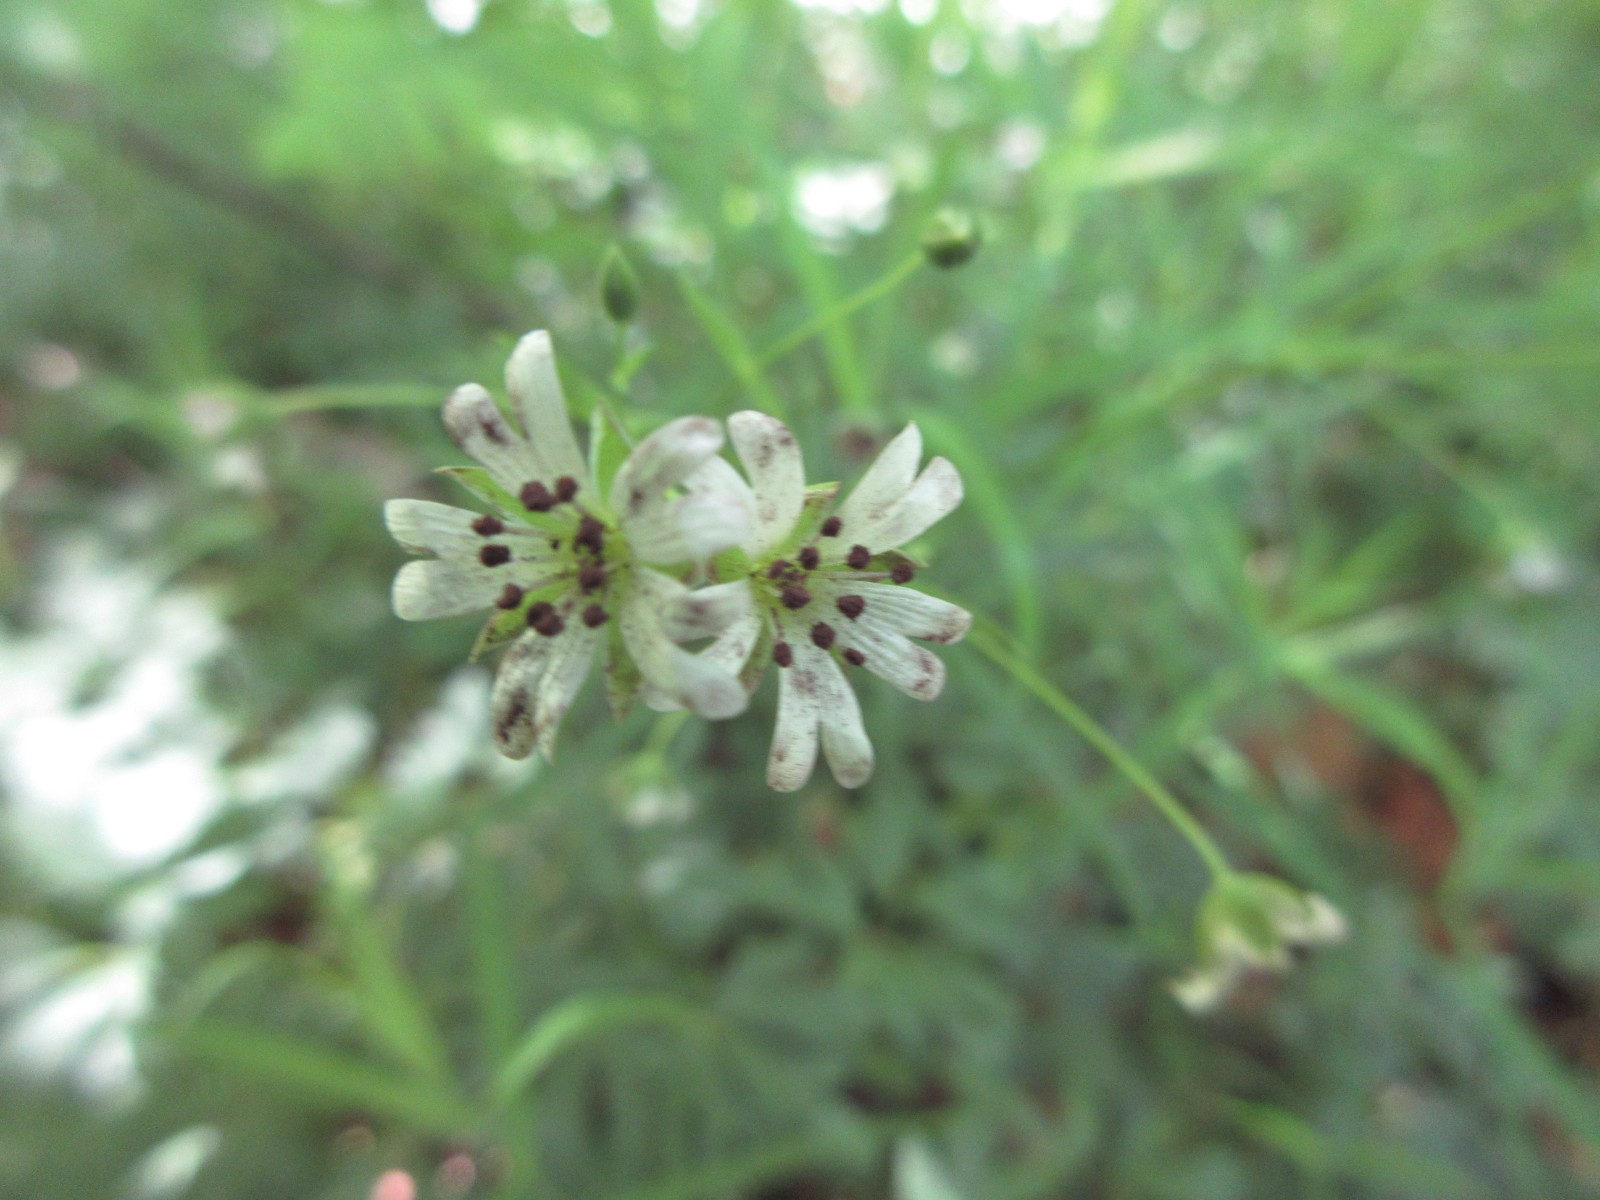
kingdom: Fungi
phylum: Basidiomycota
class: Microbotryomycetes
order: Microbotryales
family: Microbotryaceae
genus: Microbotryum
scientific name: Microbotryum stellariae
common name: fladstjerne-støvbladrust
